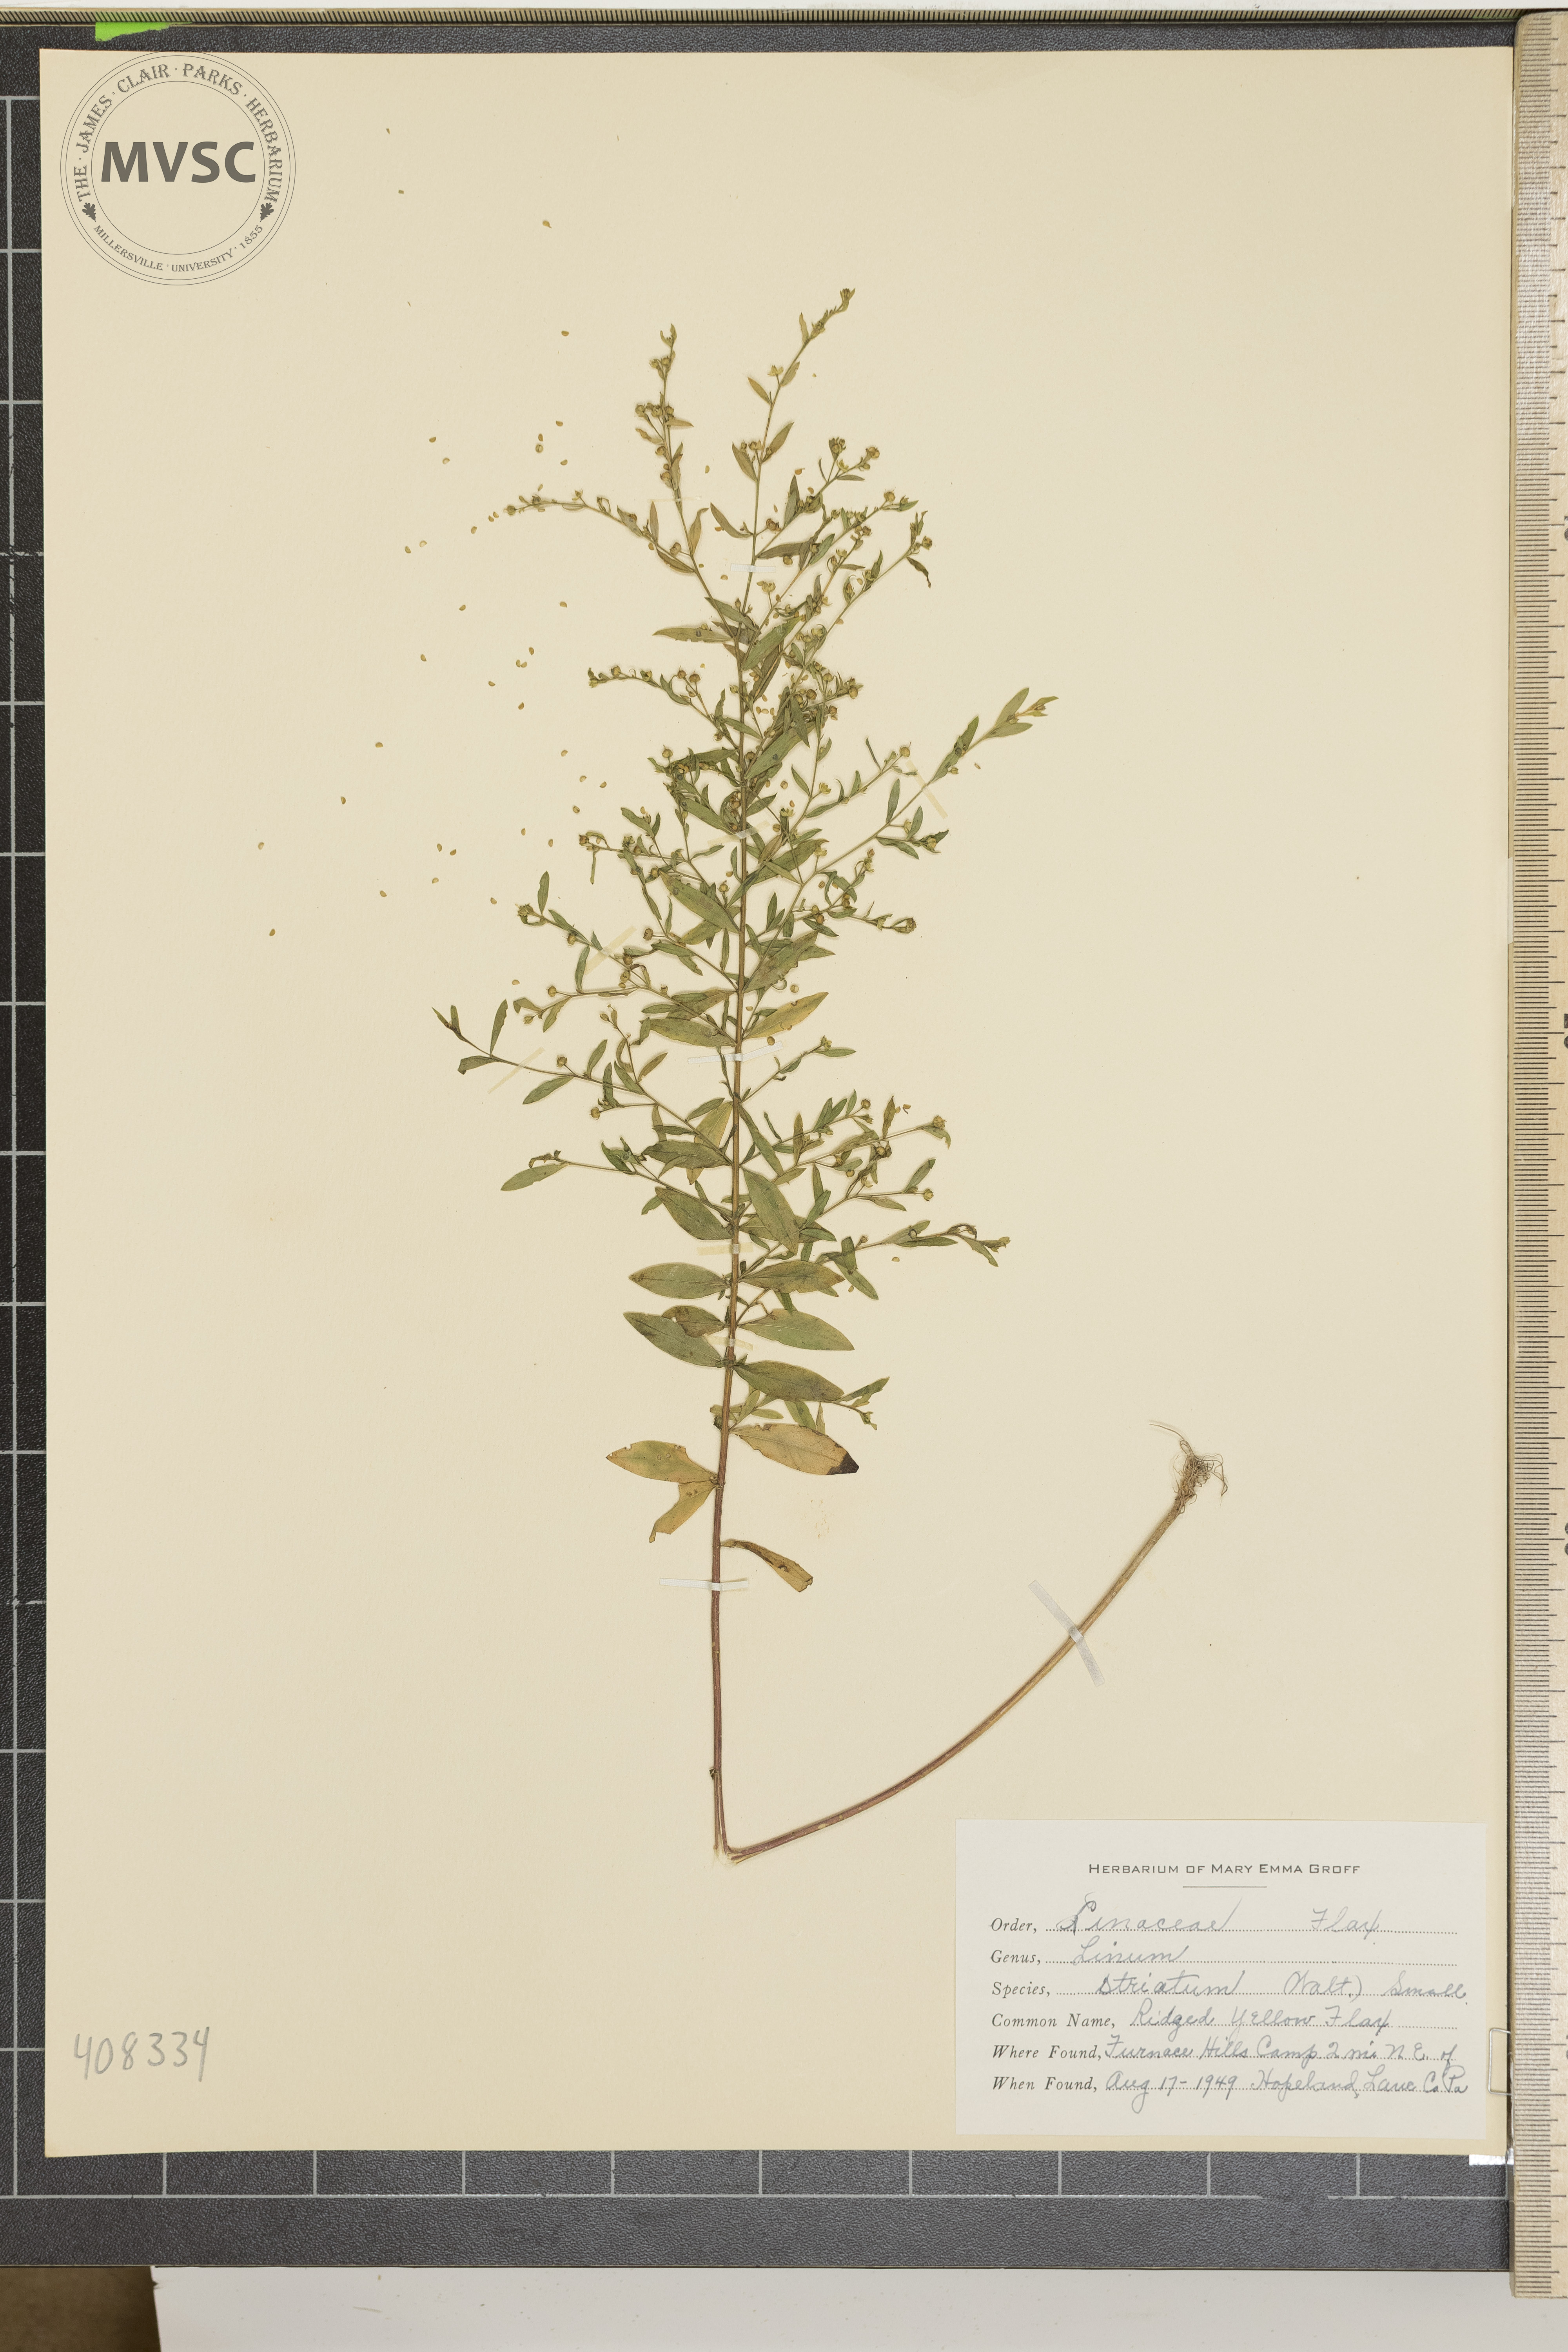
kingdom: Plantae
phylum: Tracheophyta
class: Magnoliopsida
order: Malpighiales
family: Linaceae
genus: Linum
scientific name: Linum striatum
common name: Ridged Yellow Flax
